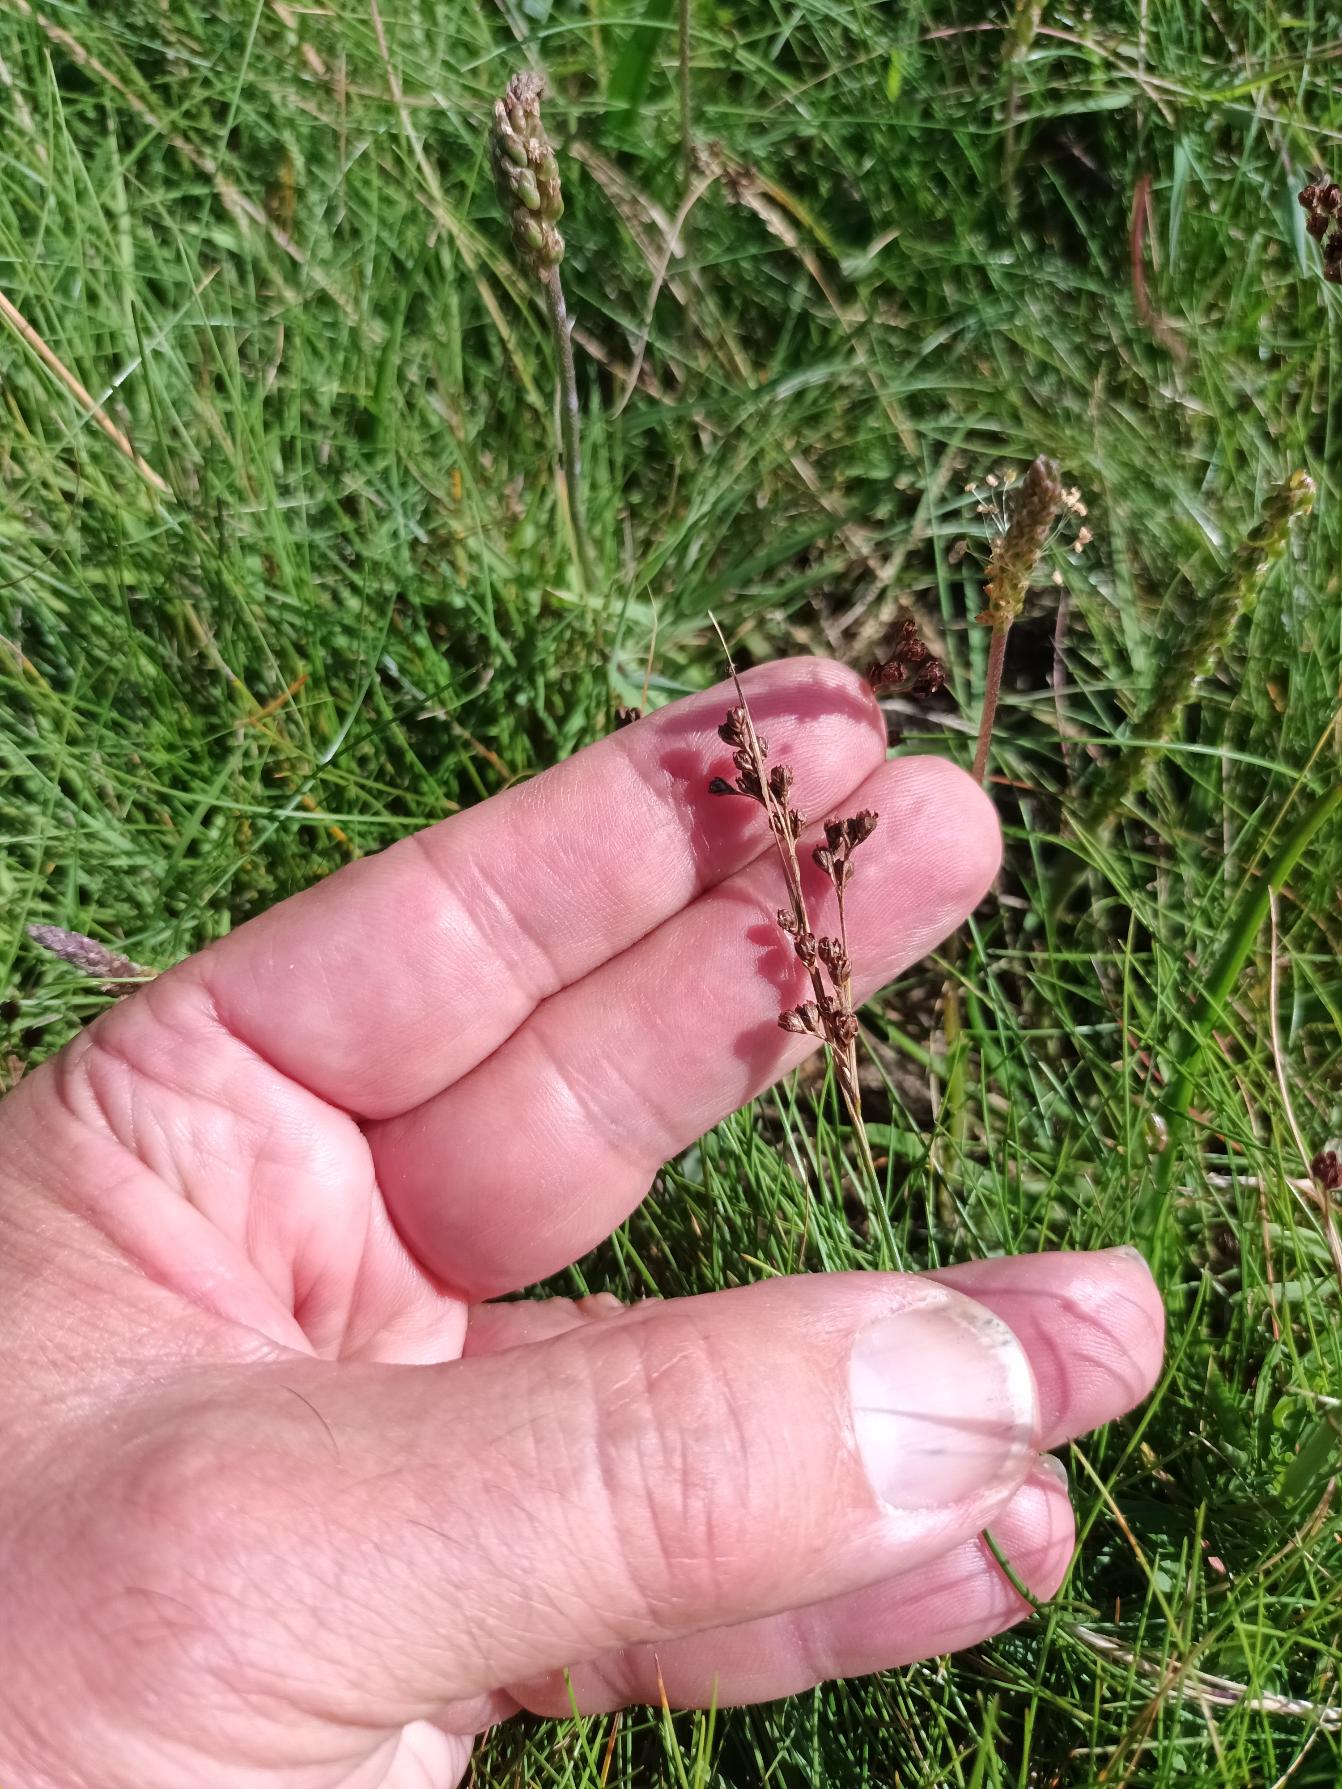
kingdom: Plantae
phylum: Tracheophyta
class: Liliopsida
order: Poales
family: Juncaceae
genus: Juncus
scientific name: Juncus gerardi
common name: Harril
